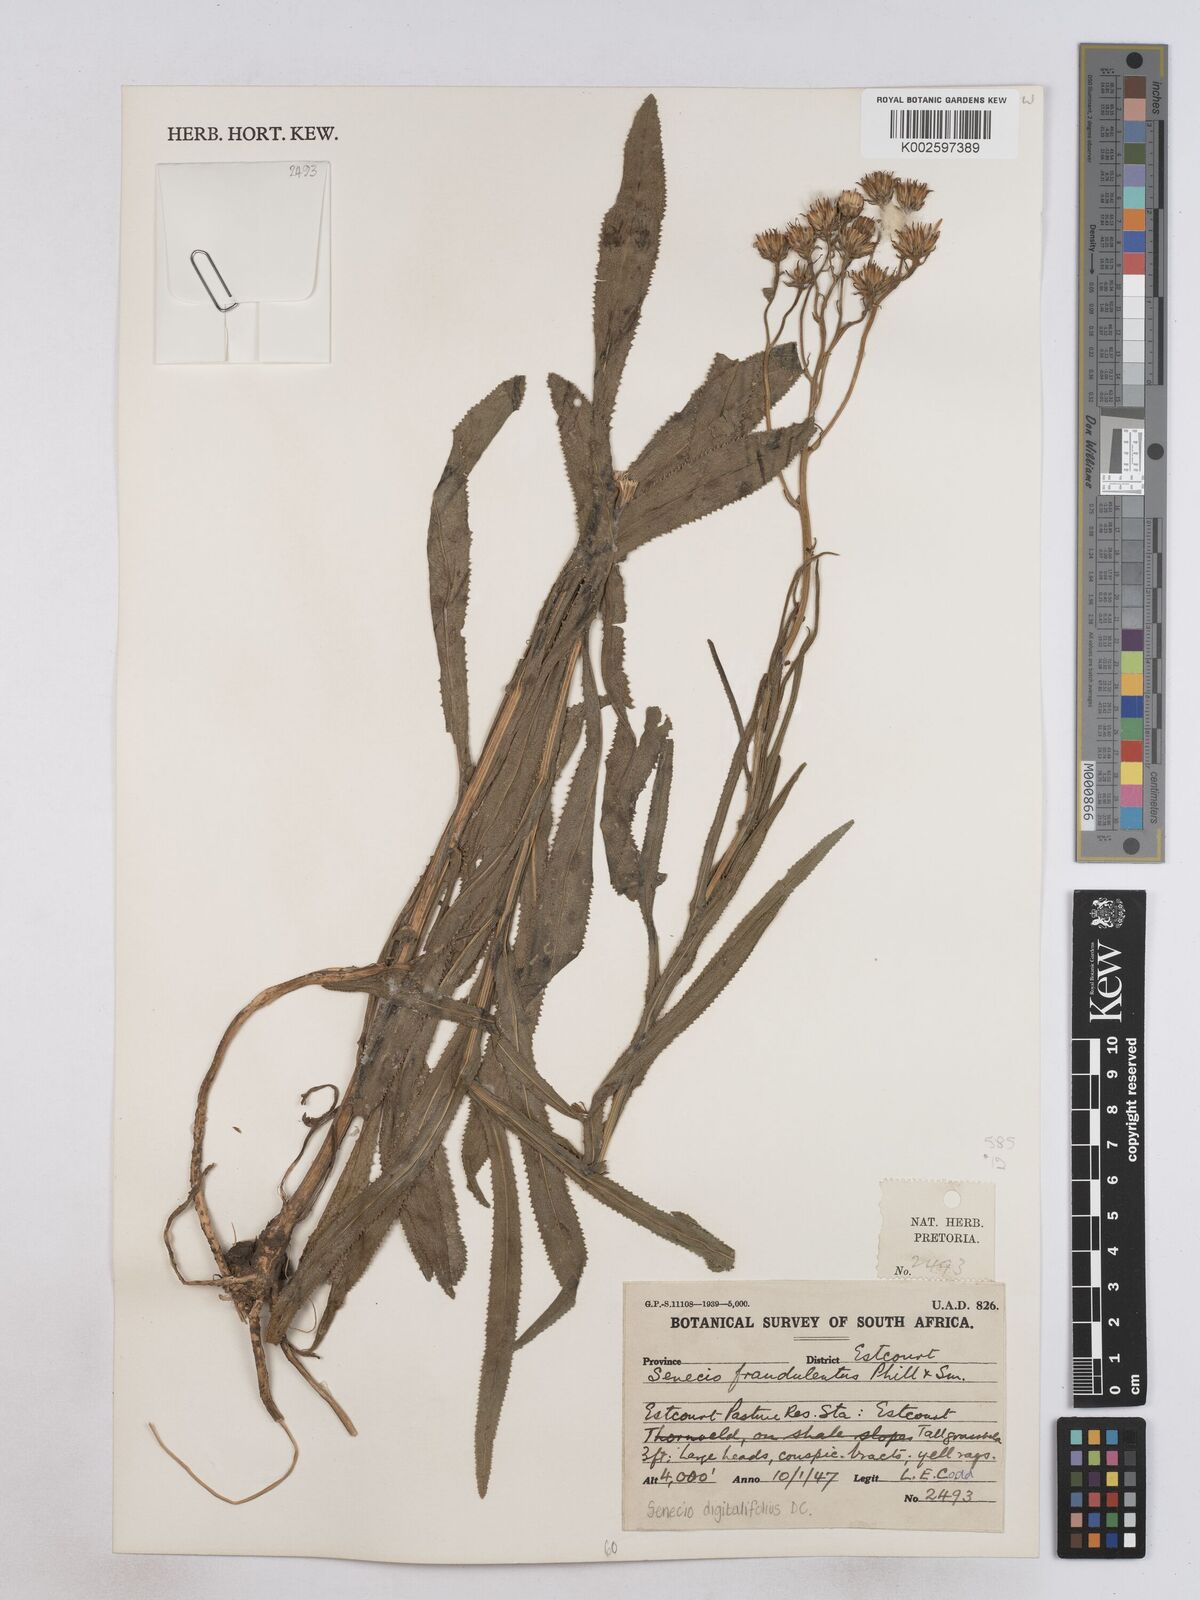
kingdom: Plantae
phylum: Tracheophyta
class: Magnoliopsida
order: Asterales
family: Asteraceae
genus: Senecio
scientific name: Senecio digitalifolius
